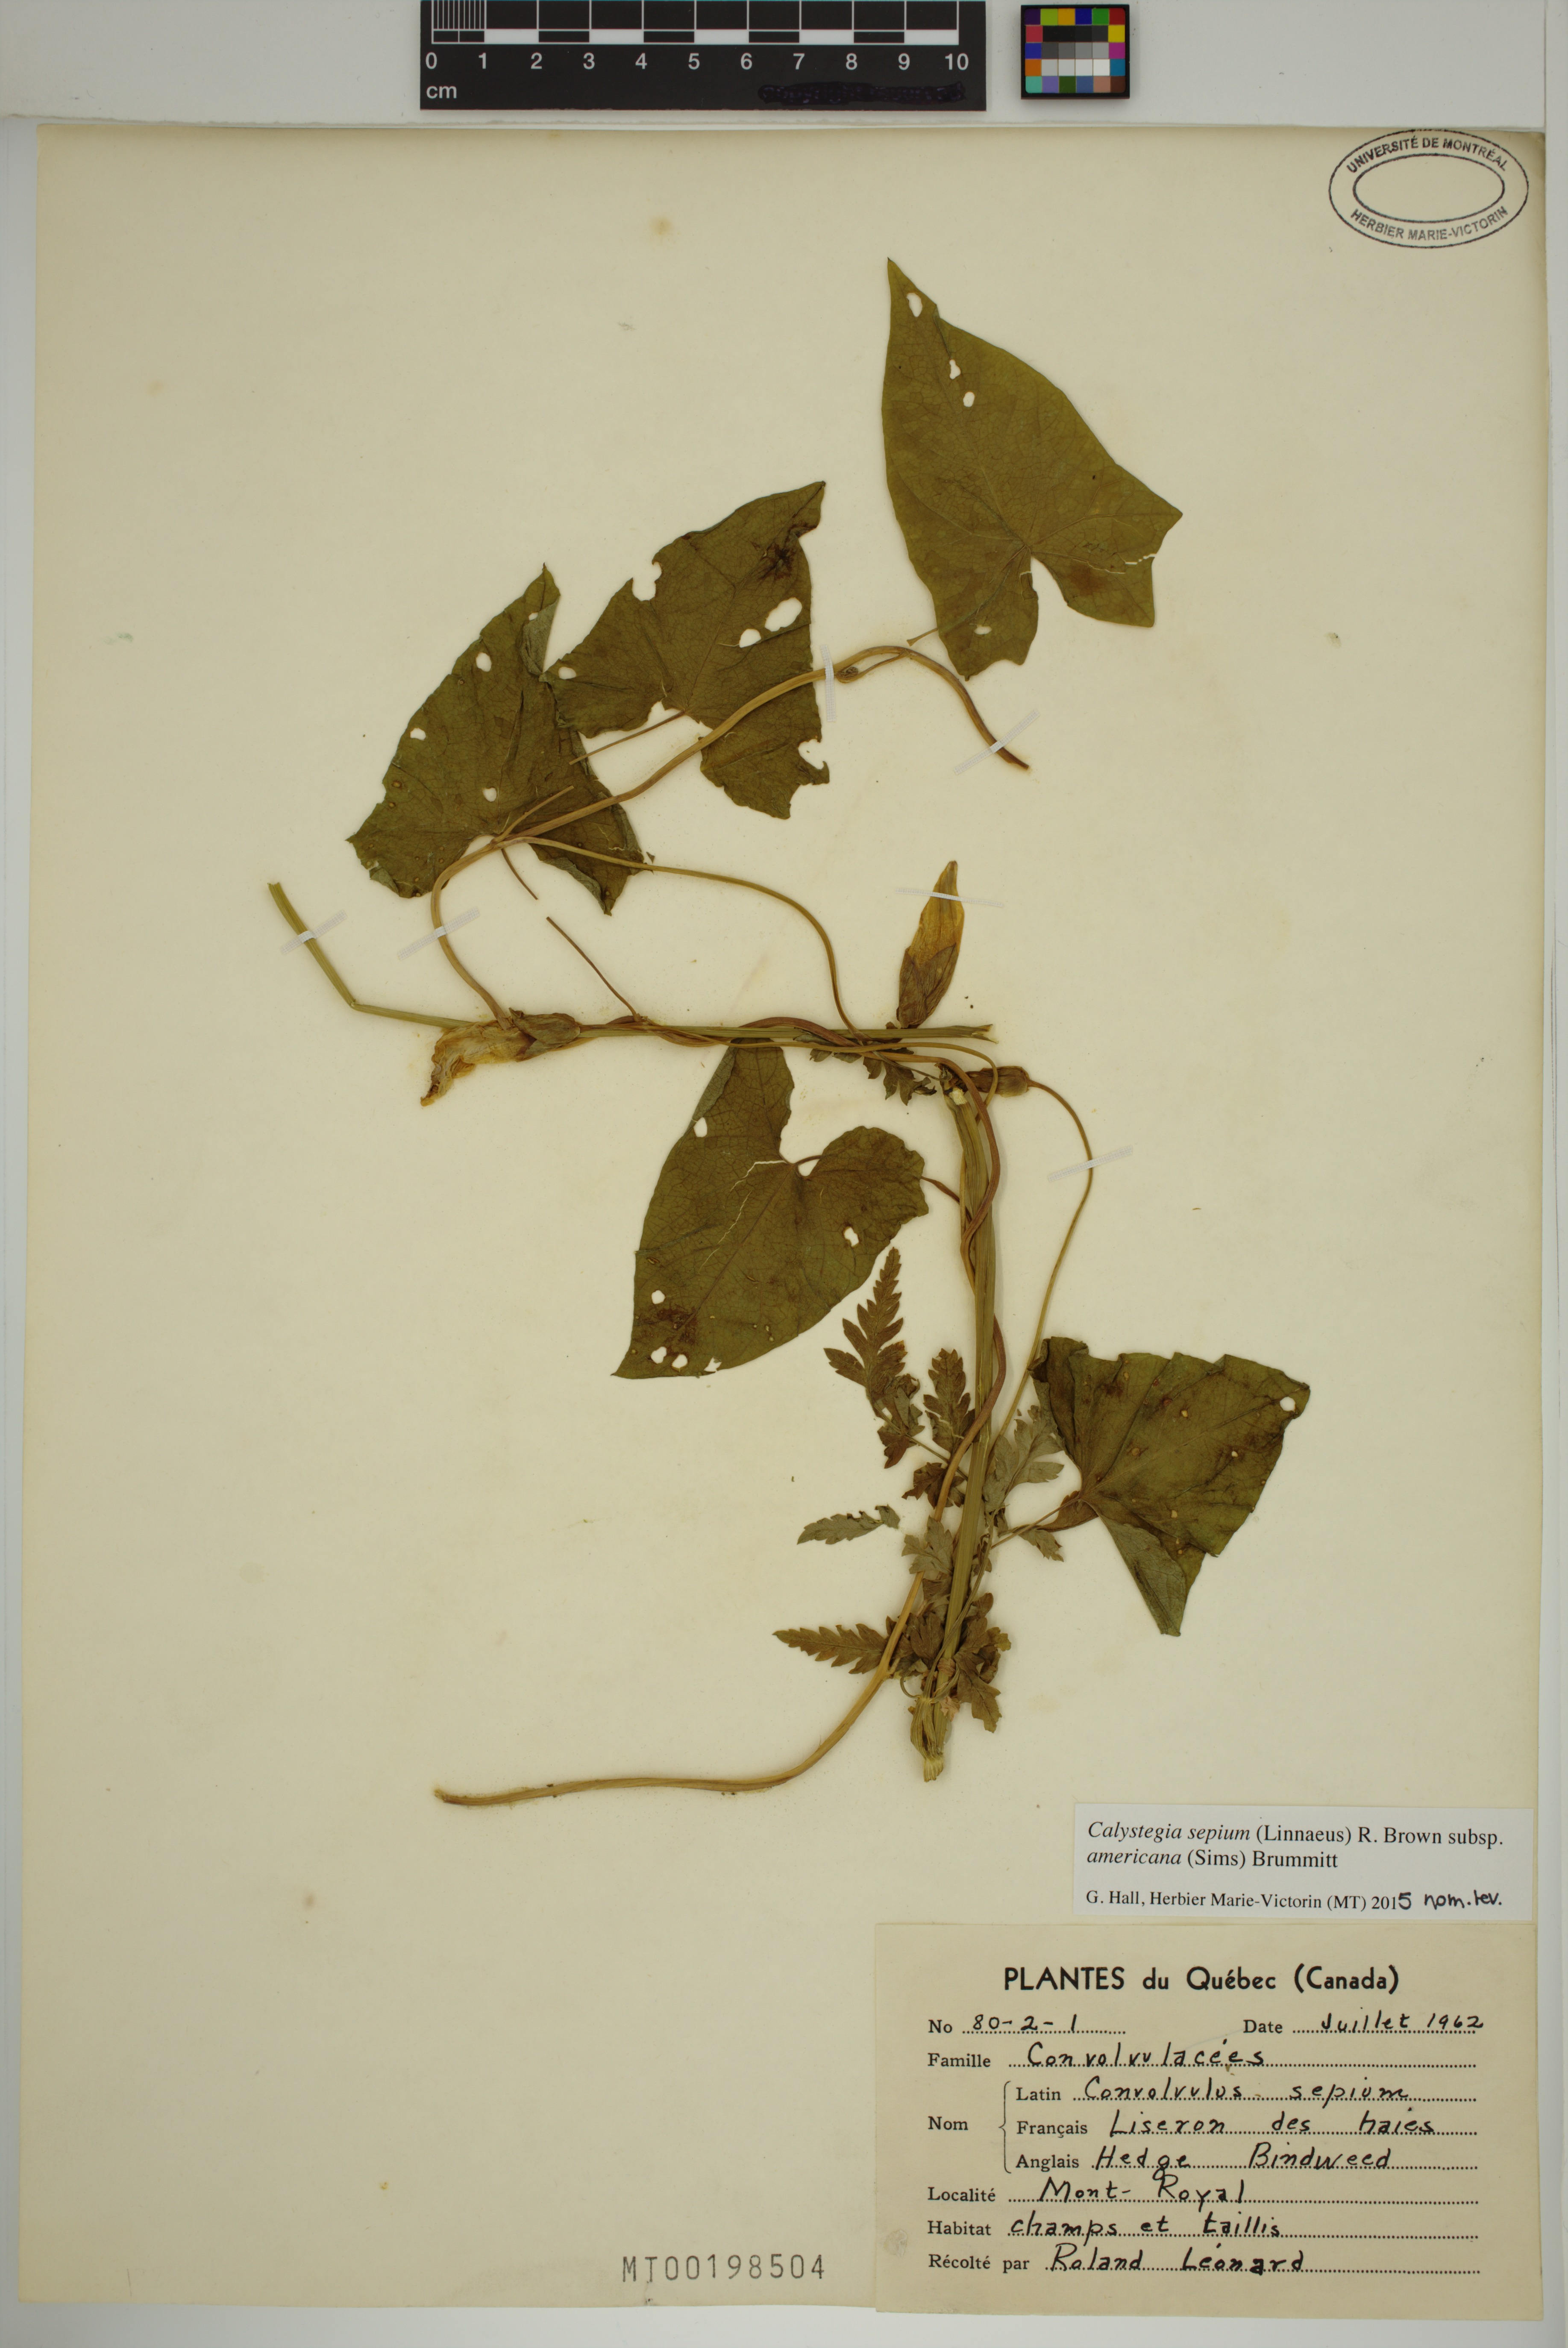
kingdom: Plantae
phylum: Tracheophyta
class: Magnoliopsida
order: Solanales
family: Convolvulaceae
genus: Calystegia
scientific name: Calystegia sepium
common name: Hedge bindweed
